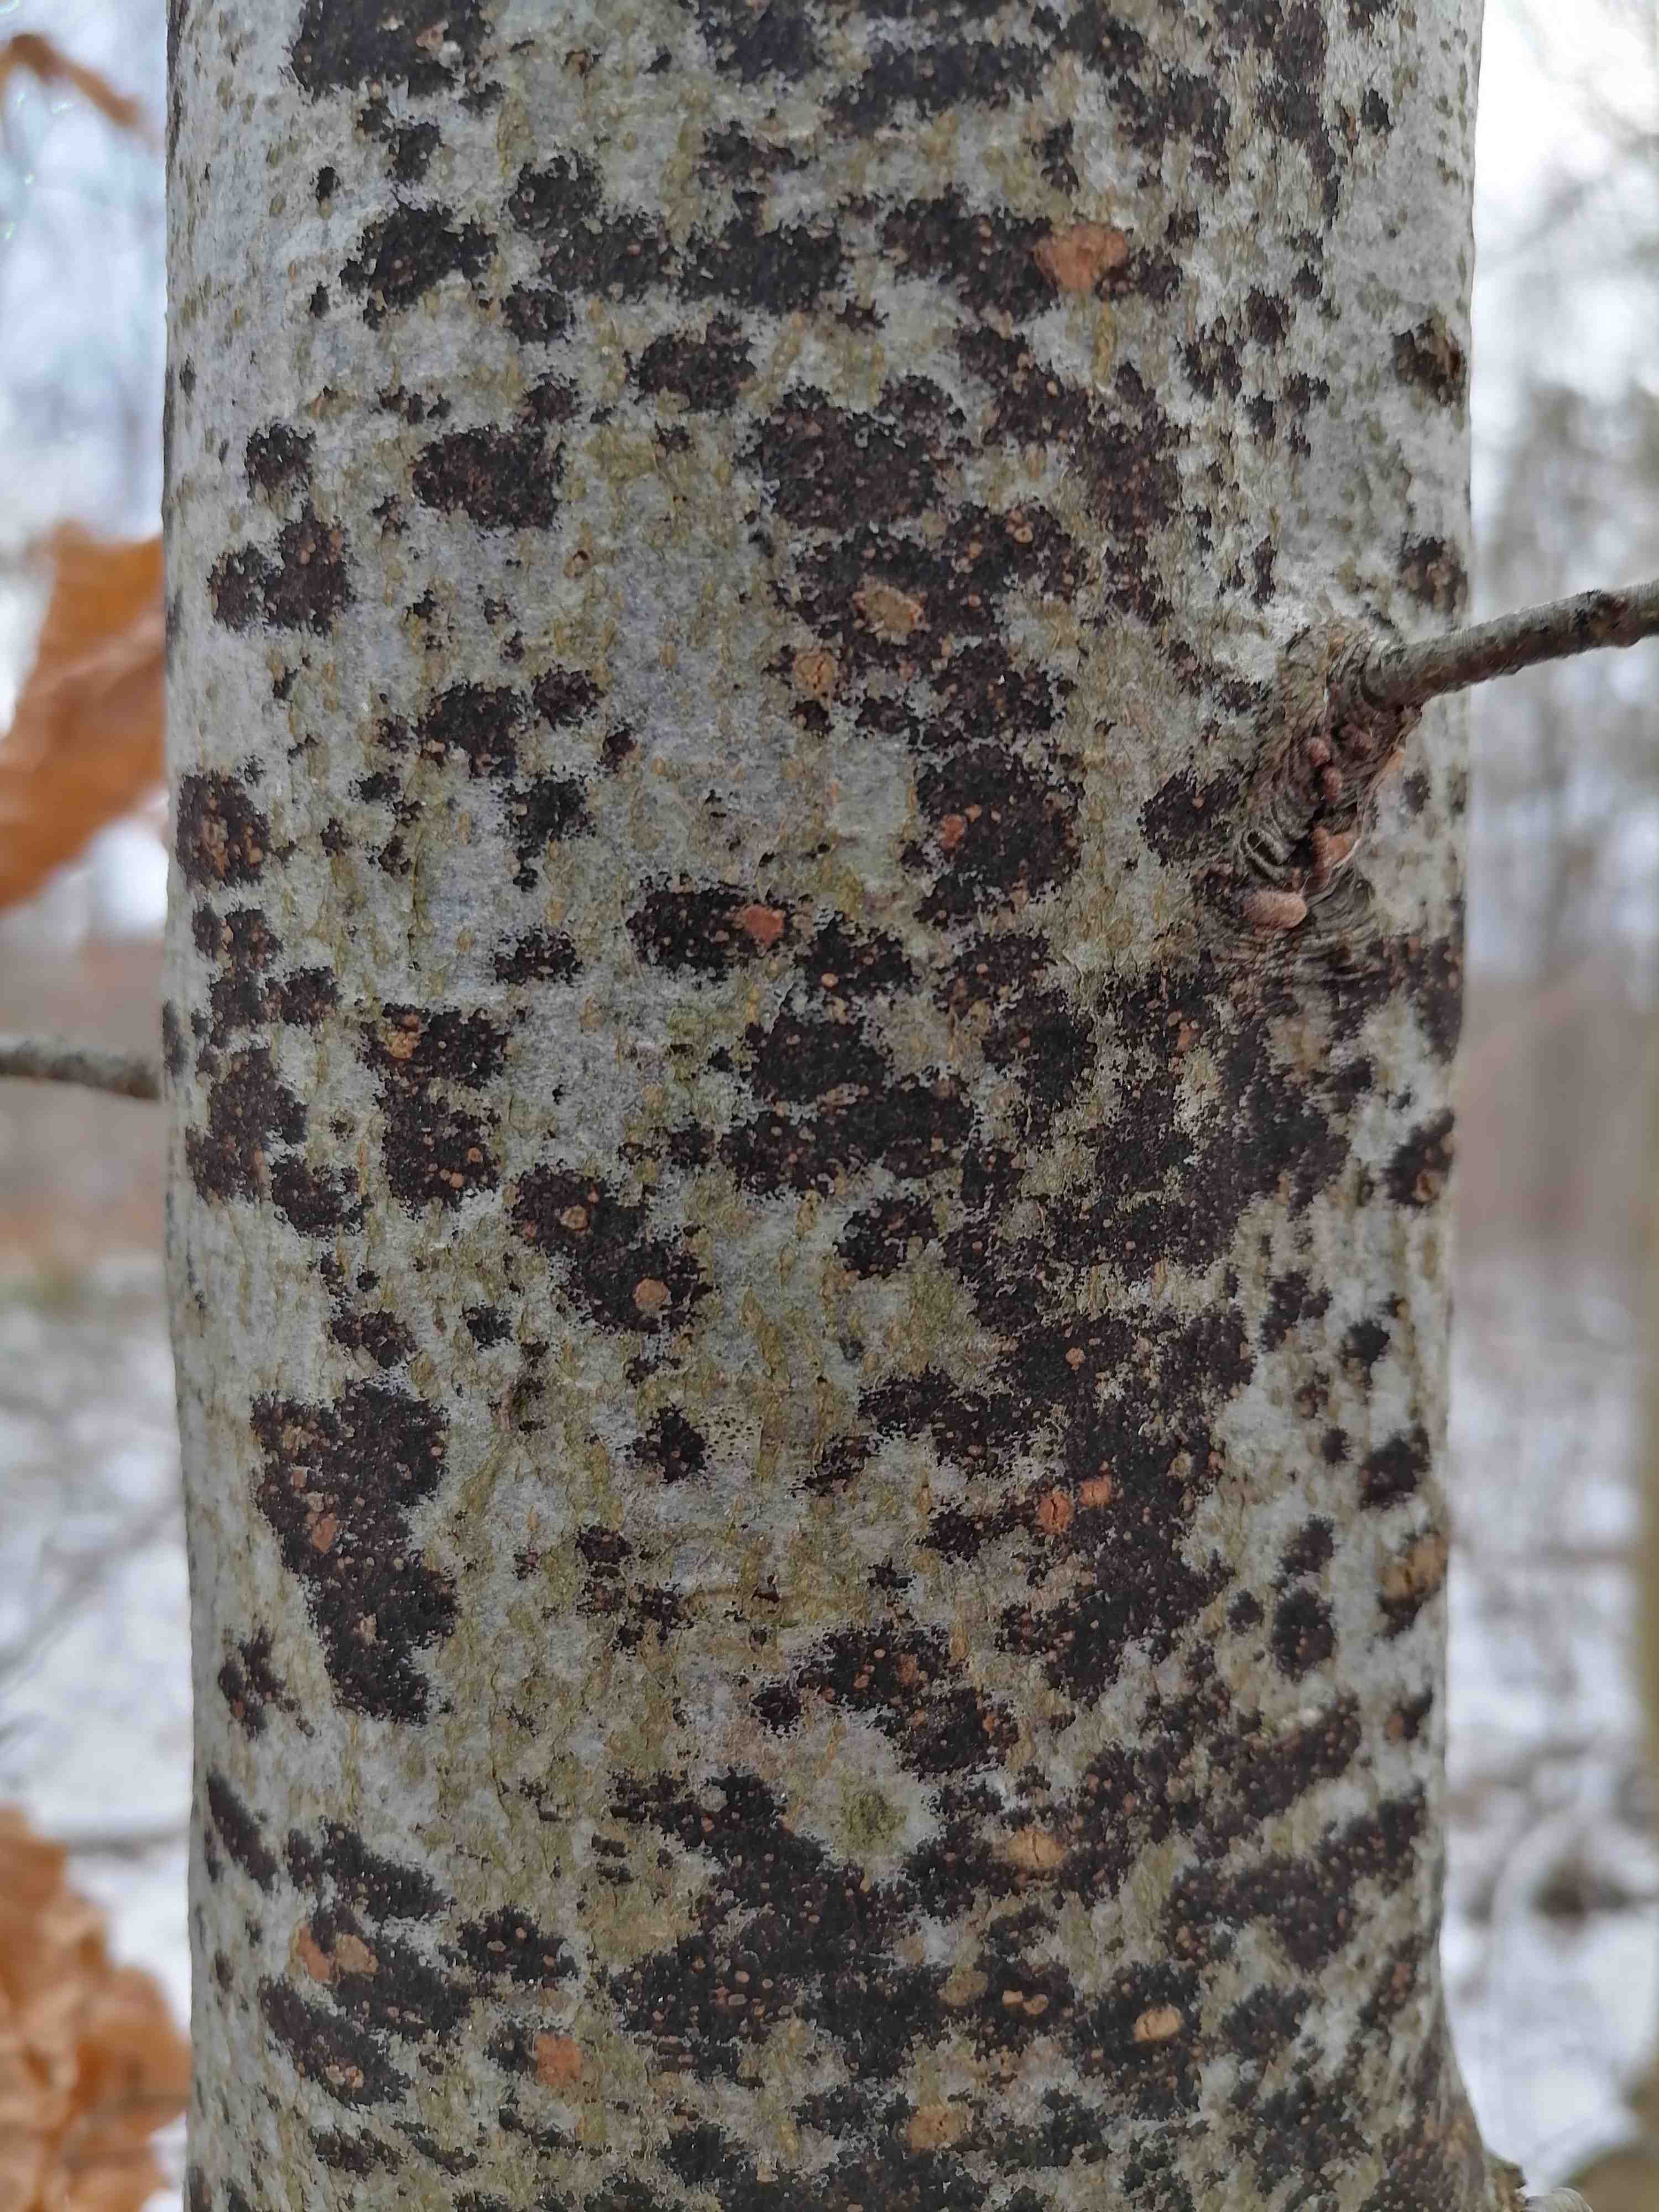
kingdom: Fungi
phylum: Ascomycota
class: Leotiomycetes
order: Rhytismatales
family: Ascodichaenaceae
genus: Ascodichaena
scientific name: Ascodichaena rugosa
